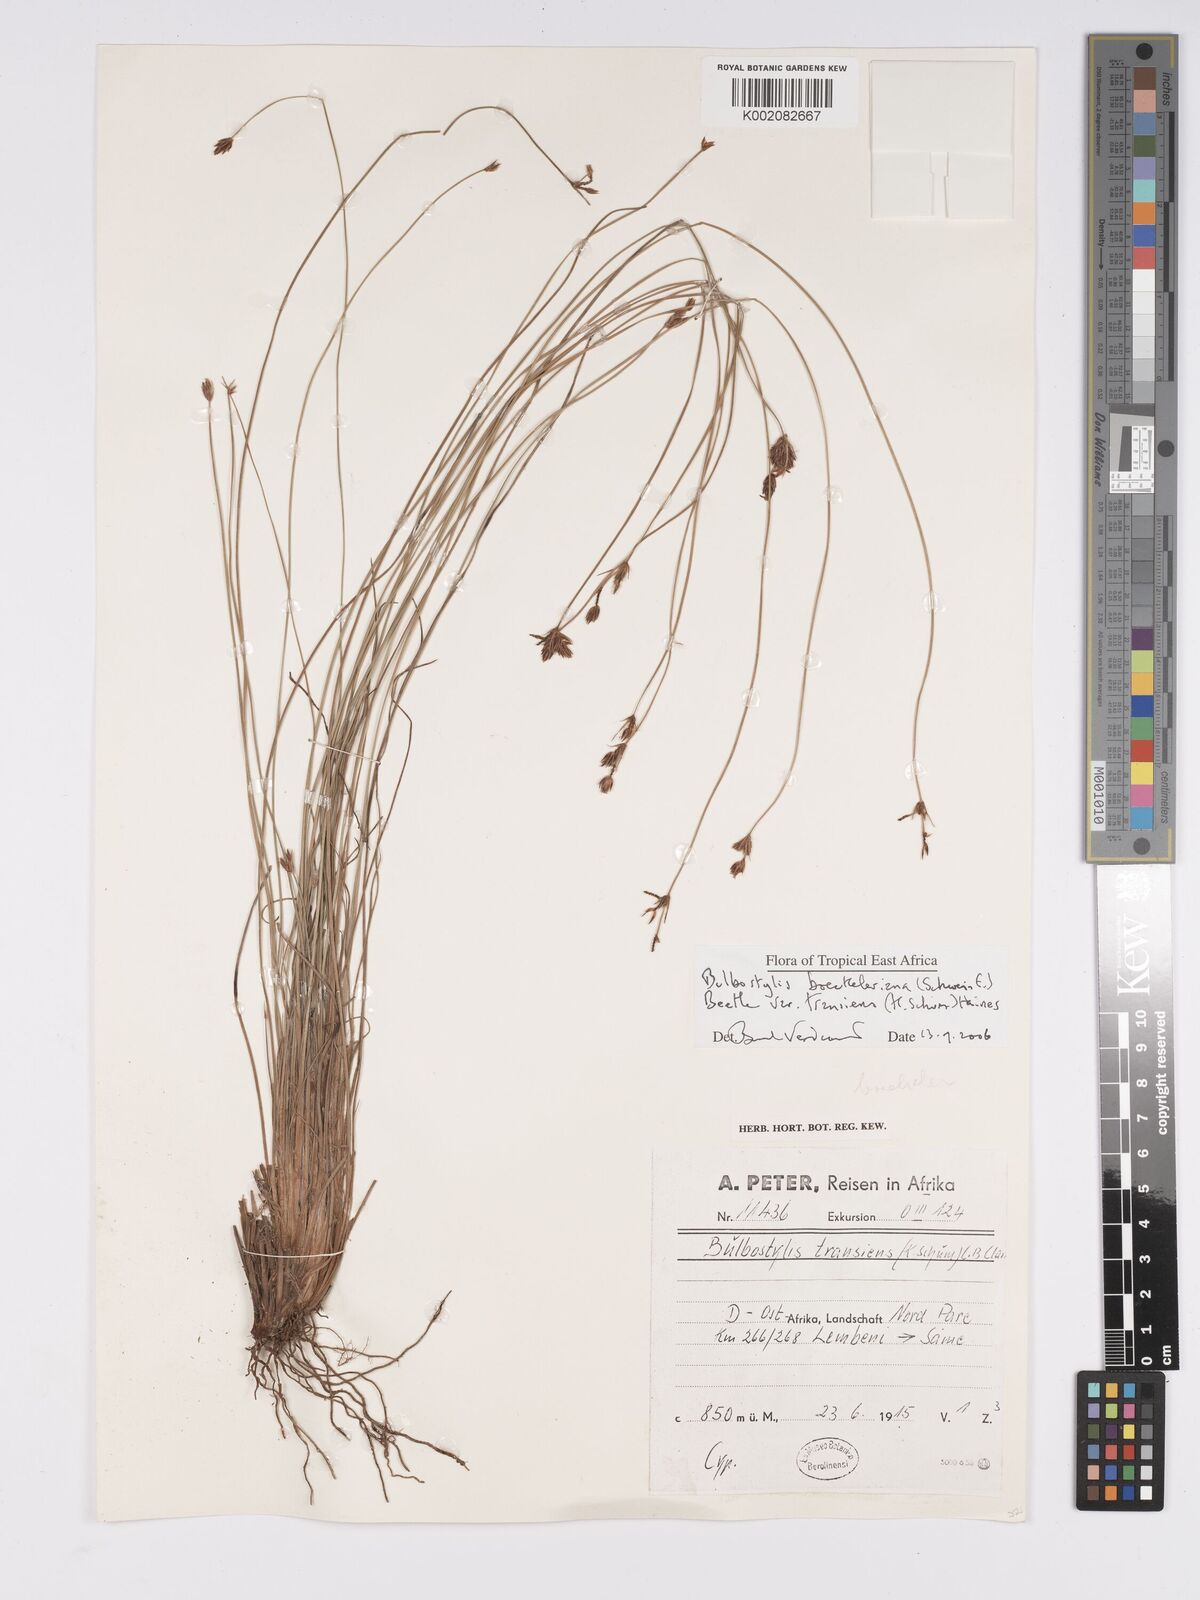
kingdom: Plantae
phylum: Tracheophyta
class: Liliopsida
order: Poales
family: Cyperaceae
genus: Bulbostylis
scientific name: Bulbostylis boeckeleriana
